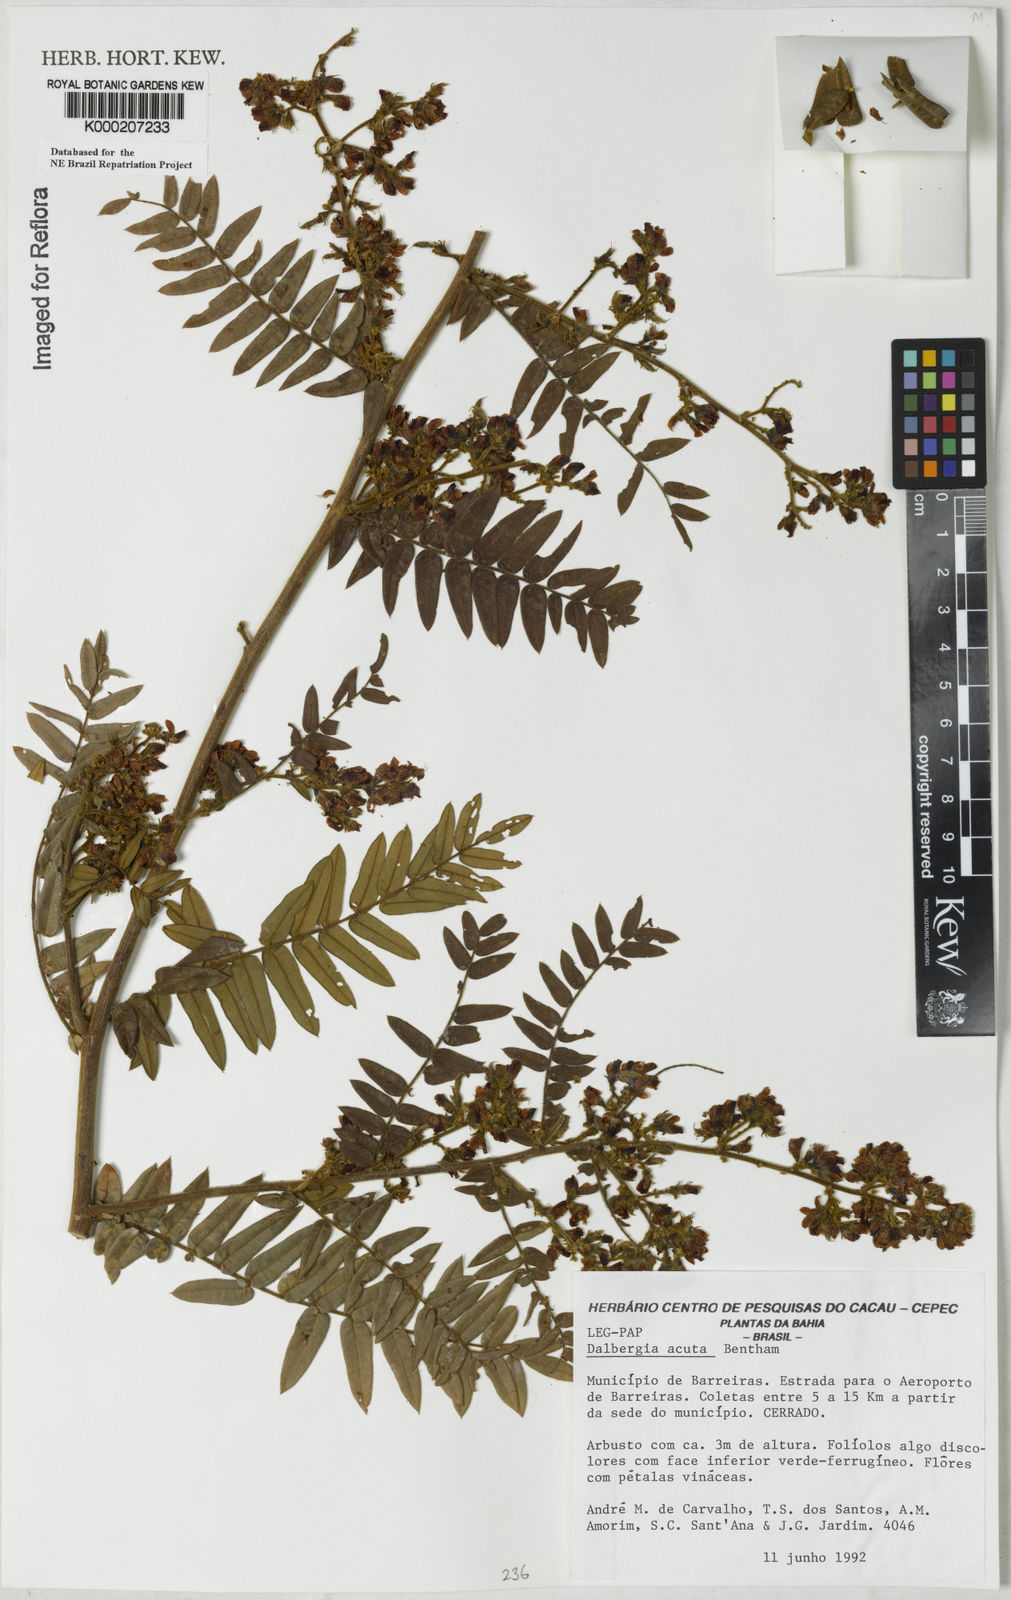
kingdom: Plantae
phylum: Tracheophyta
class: Magnoliopsida
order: Fabales
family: Fabaceae
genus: Dalbergia
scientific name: Dalbergia acuta
